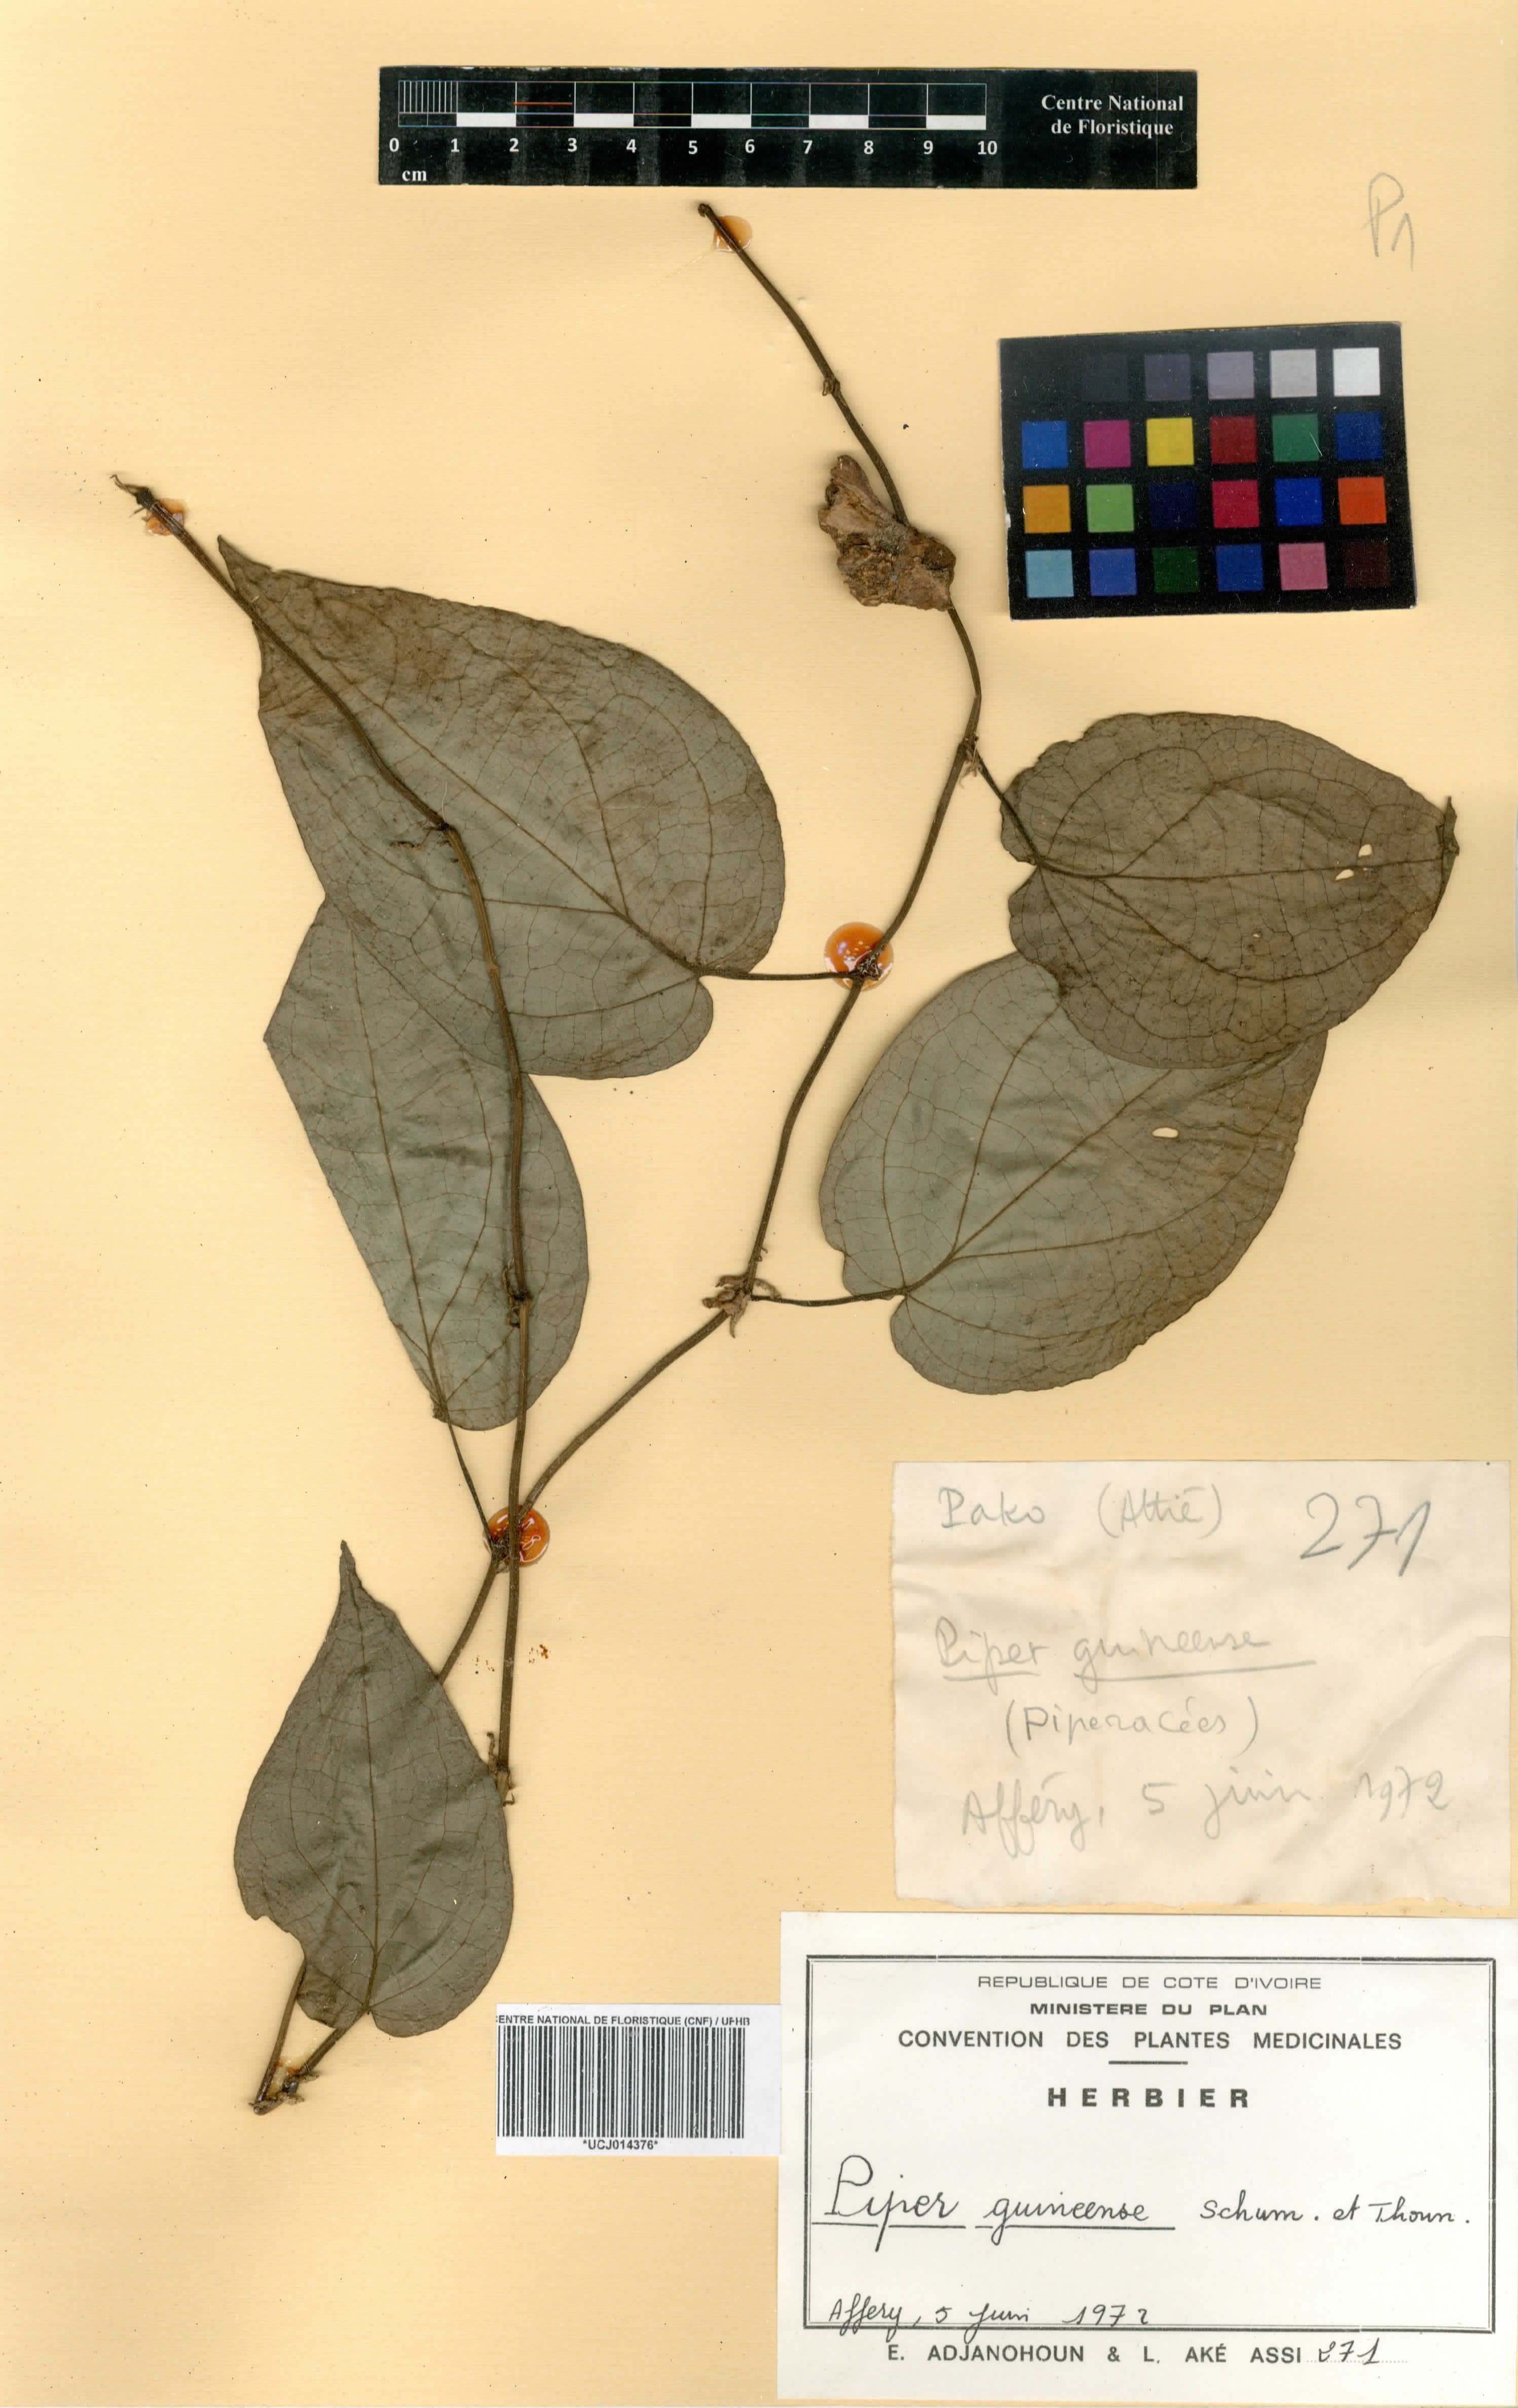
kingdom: Plantae
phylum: Tracheophyta
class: Magnoliopsida
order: Piperales
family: Piperaceae
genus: Piper
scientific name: Piper guineense
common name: Benin pepper
